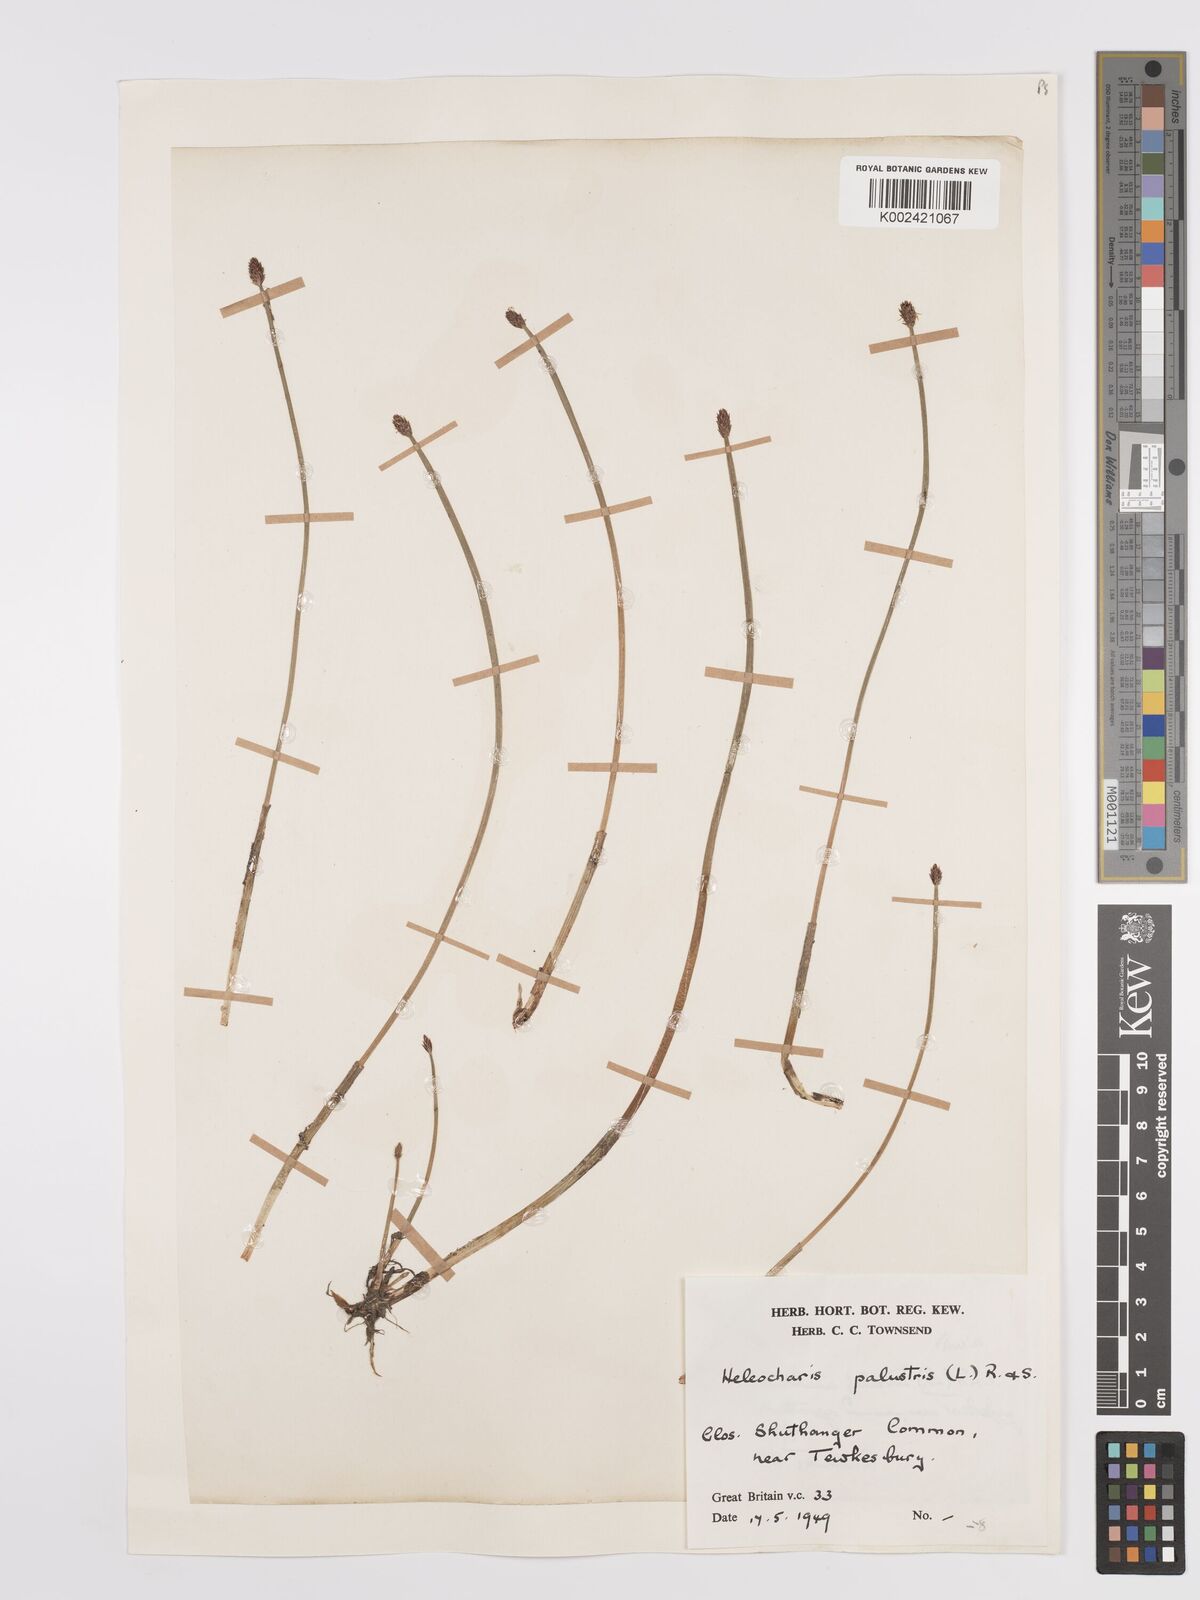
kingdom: Plantae
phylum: Tracheophyta
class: Liliopsida
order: Poales
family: Cyperaceae
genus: Eleocharis
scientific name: Eleocharis palustris
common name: Common spike-rush
